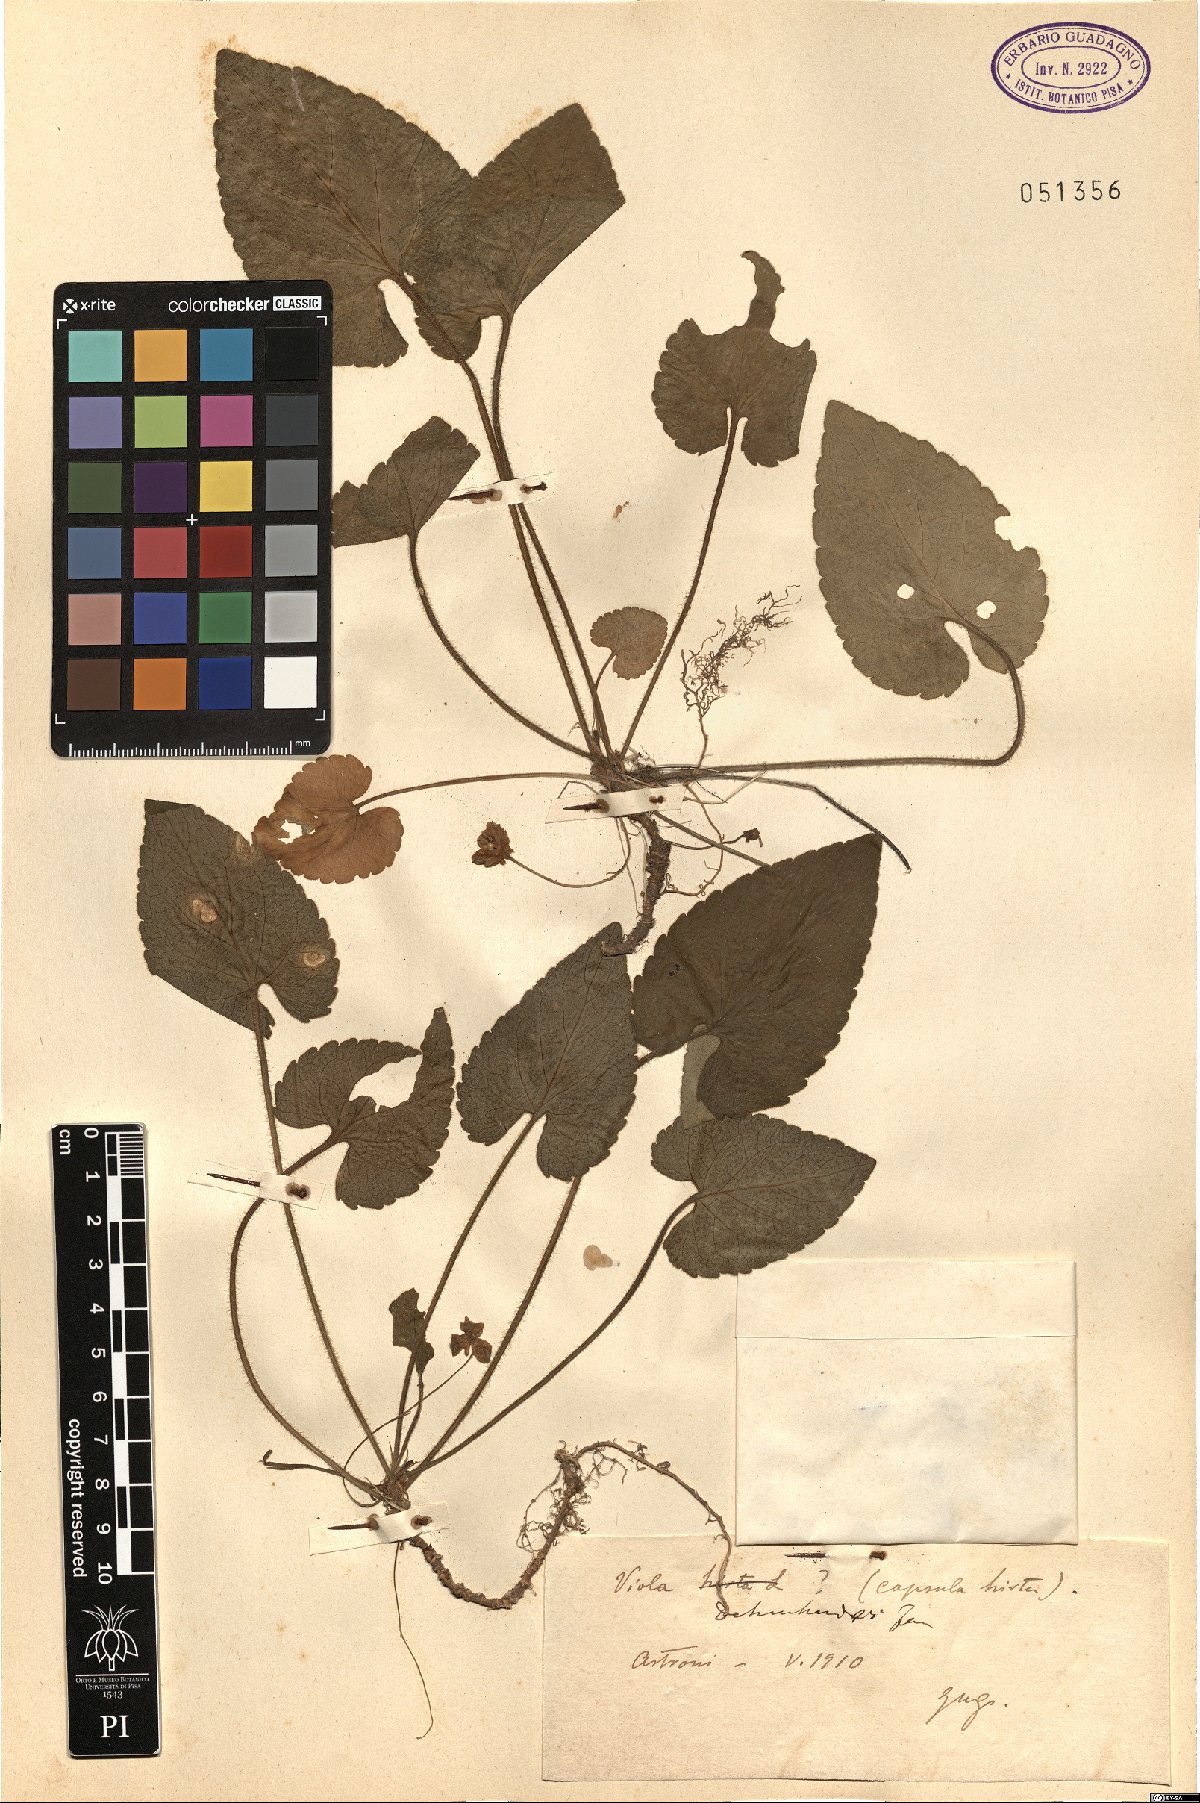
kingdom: Plantae
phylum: Tracheophyta
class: Magnoliopsida
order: Malpighiales
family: Violaceae
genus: Viola
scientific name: Viola alba
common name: White violet
